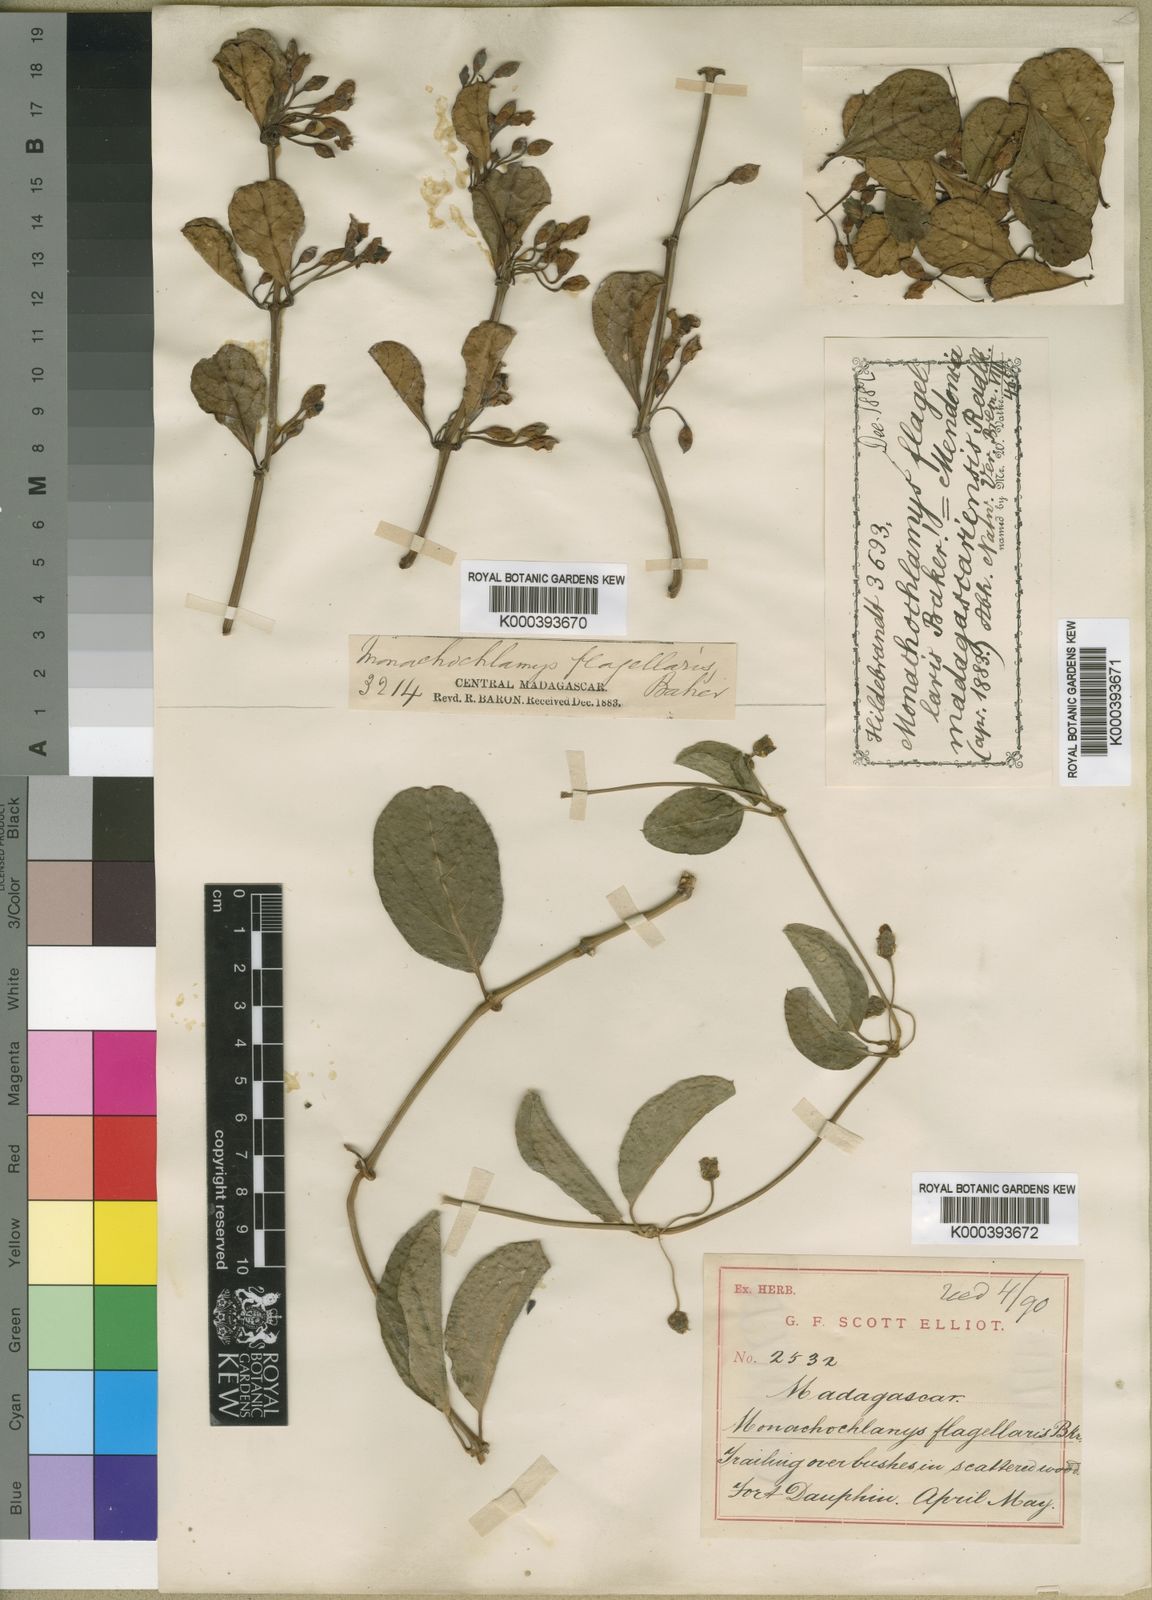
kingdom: Plantae
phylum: Tracheophyta
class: Magnoliopsida
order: Lamiales
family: Acanthaceae
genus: Mendoncia
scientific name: Mendoncia flagellaris
